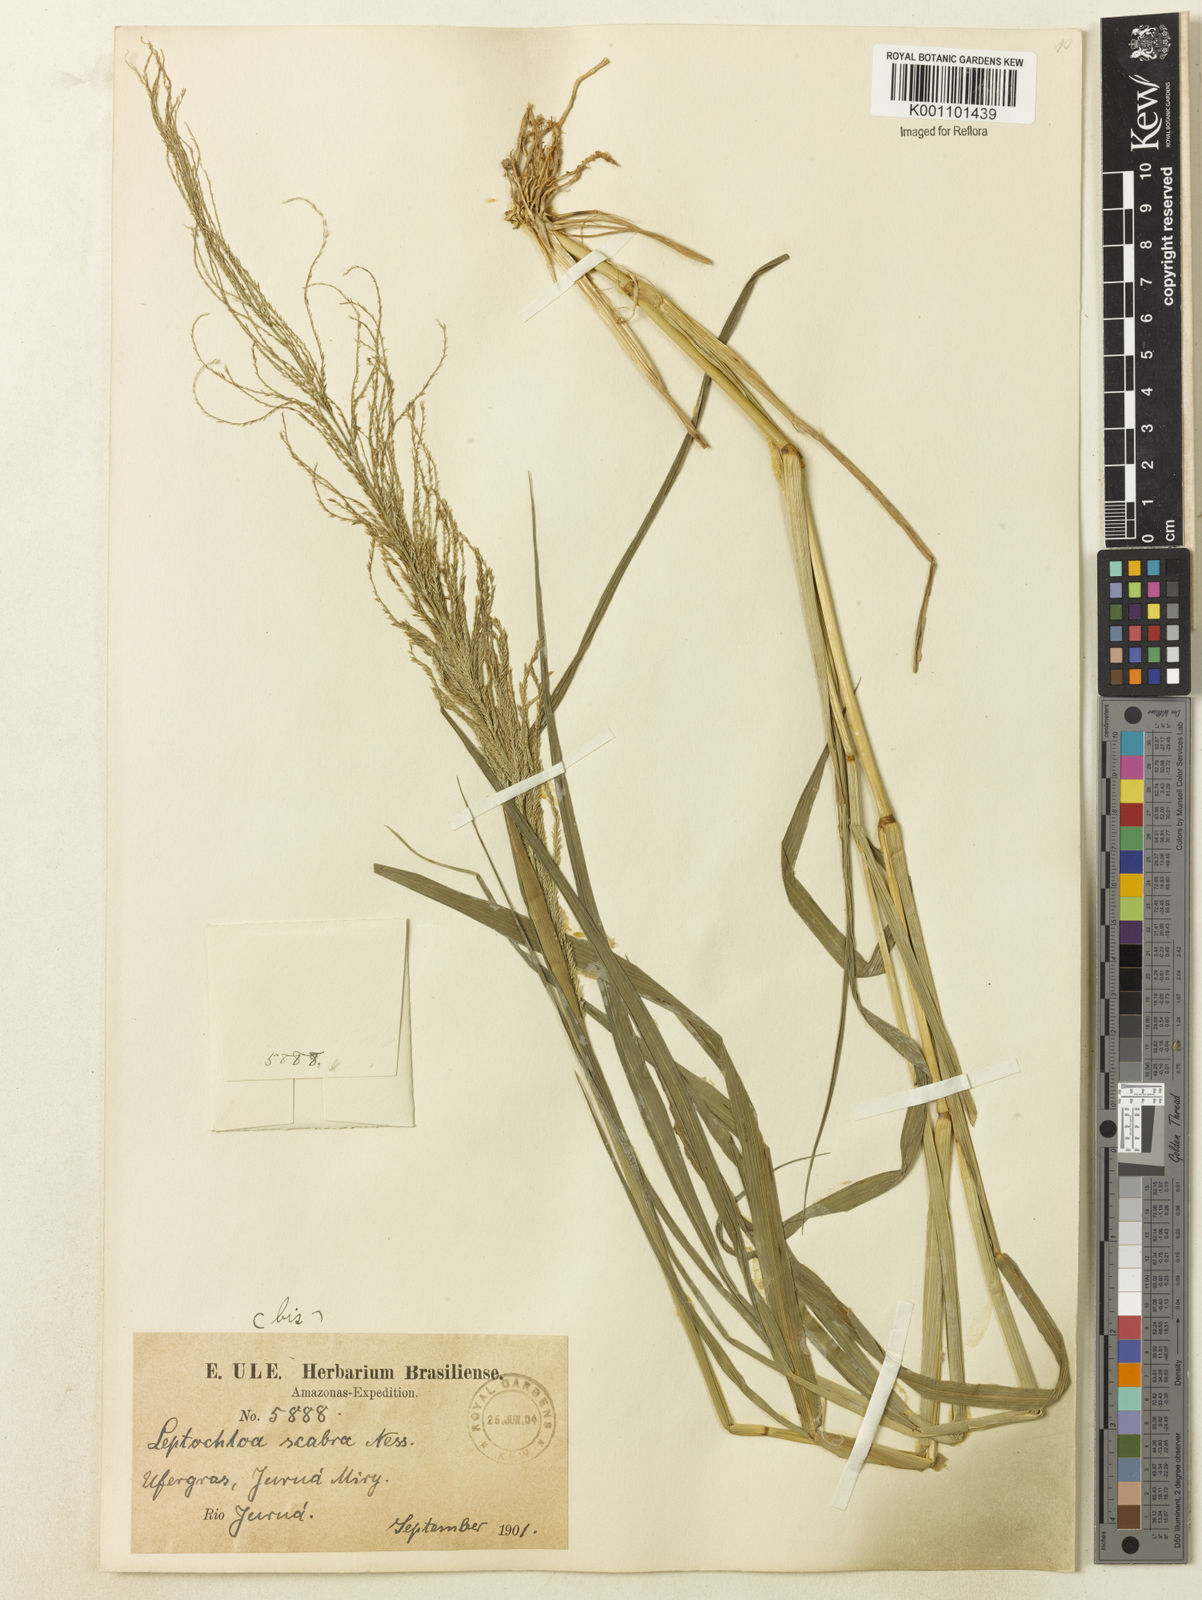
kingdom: Plantae
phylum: Tracheophyta
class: Liliopsida
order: Poales
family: Poaceae
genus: Leptochloa
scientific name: Leptochloa
